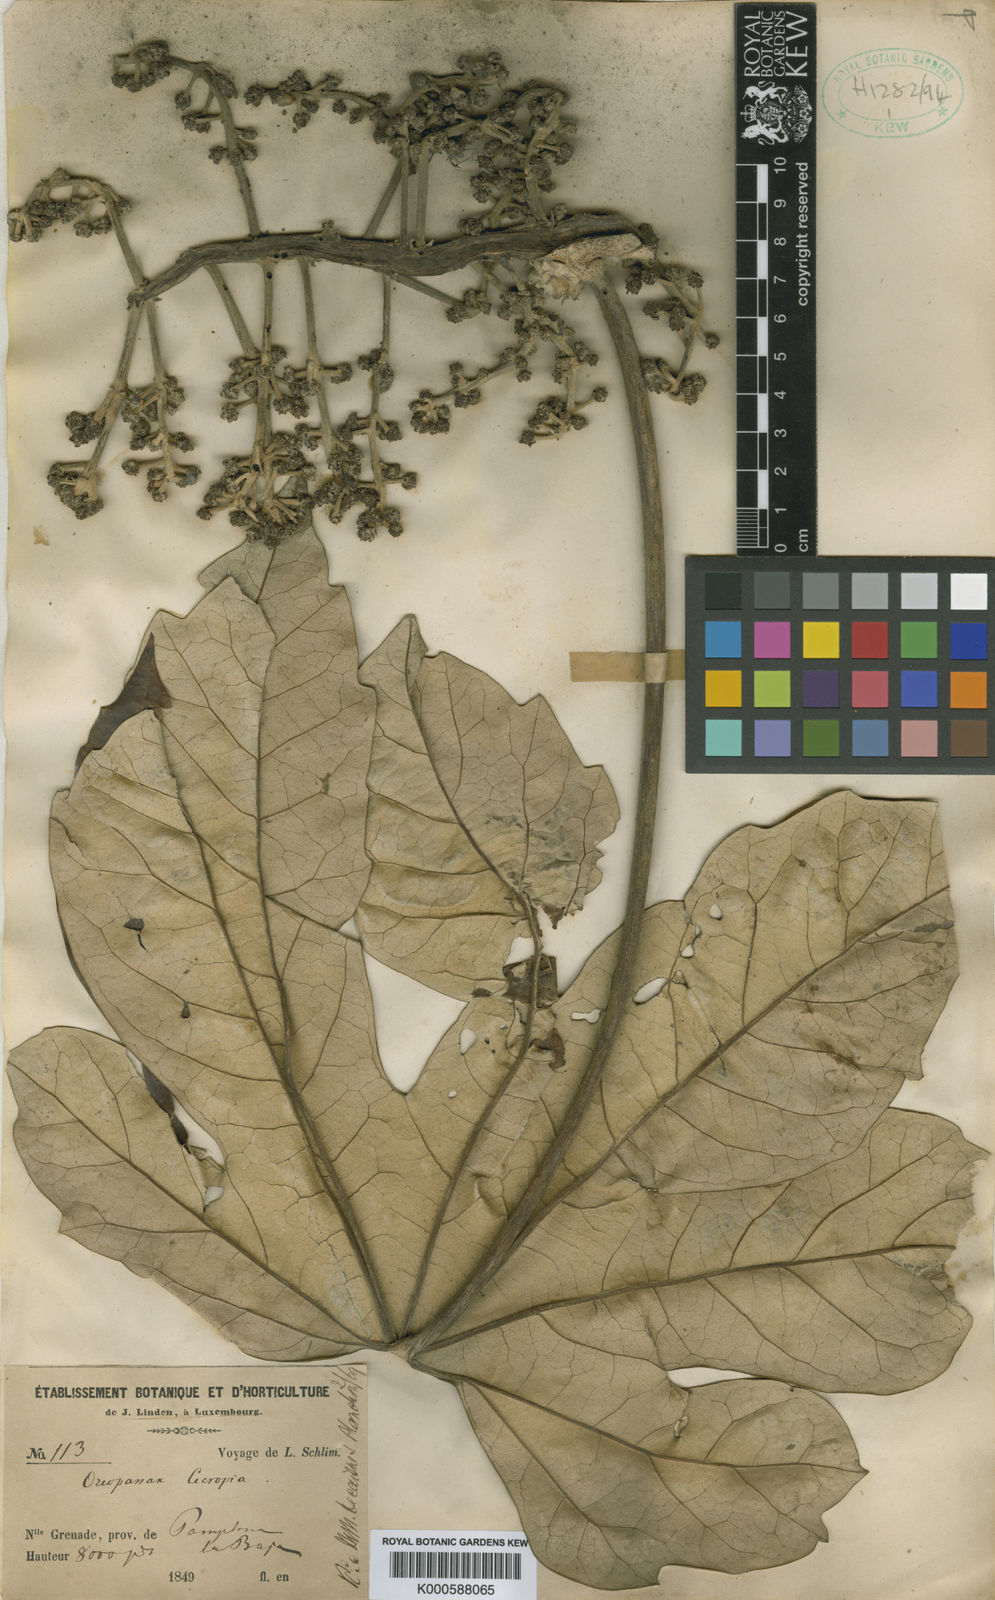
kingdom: Plantae
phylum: Tracheophyta
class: Magnoliopsida
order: Apiales
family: Araliaceae
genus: Oreopanax
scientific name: Oreopanax
